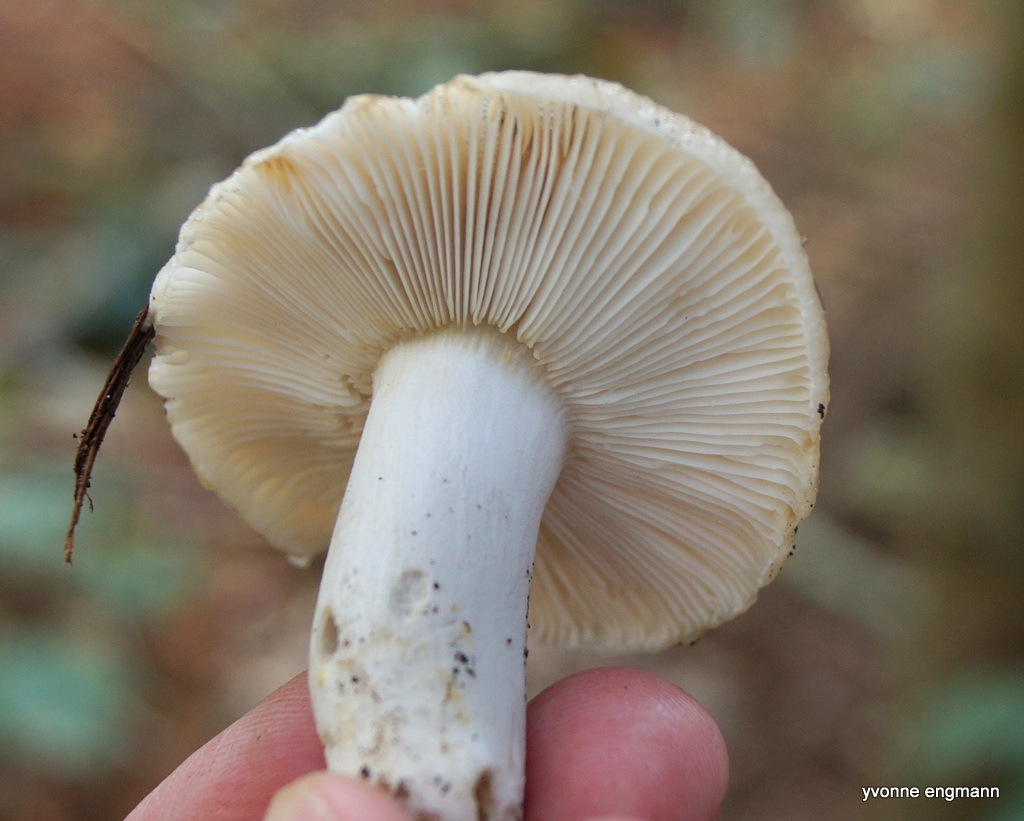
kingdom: Fungi
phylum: Basidiomycota
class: Agaricomycetes
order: Russulales
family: Russulaceae
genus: Russula
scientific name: Russula recondita
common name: mild kam-skørhat
